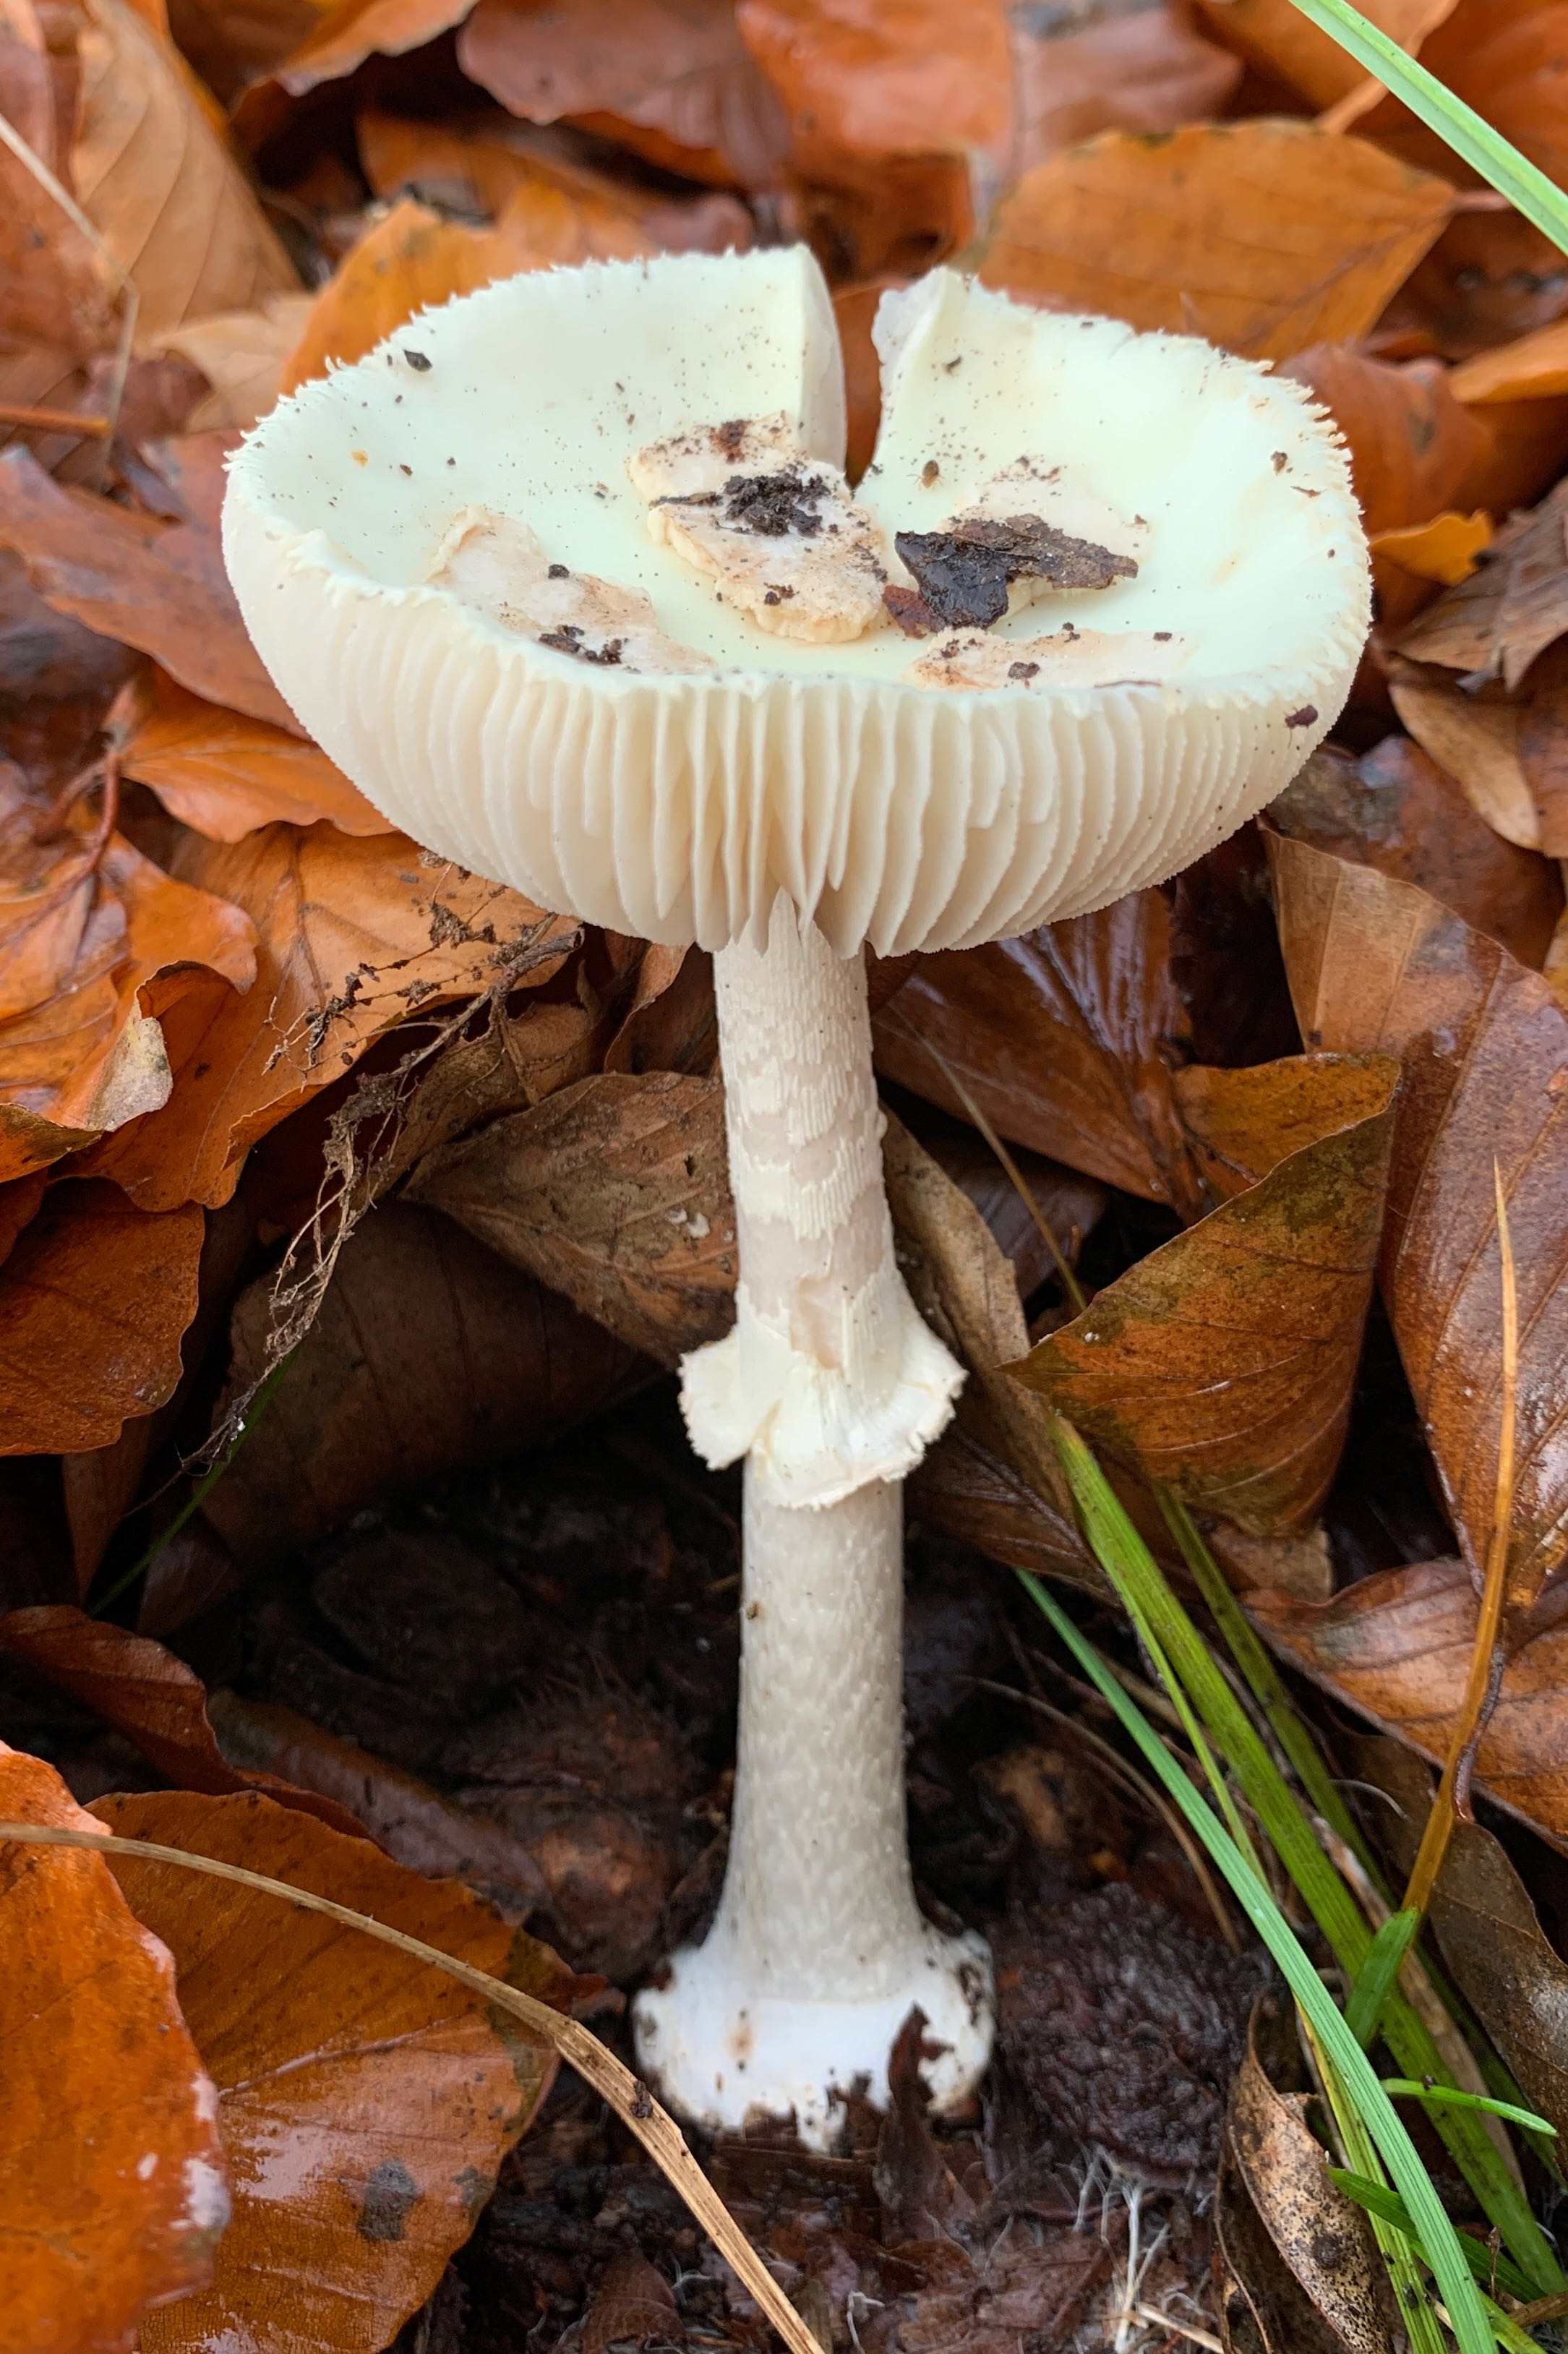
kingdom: Fungi
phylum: Basidiomycota
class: Agaricomycetes
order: Agaricales
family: Amanitaceae
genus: Amanita
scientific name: Amanita citrina
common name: kugleknoldet fluesvamp
